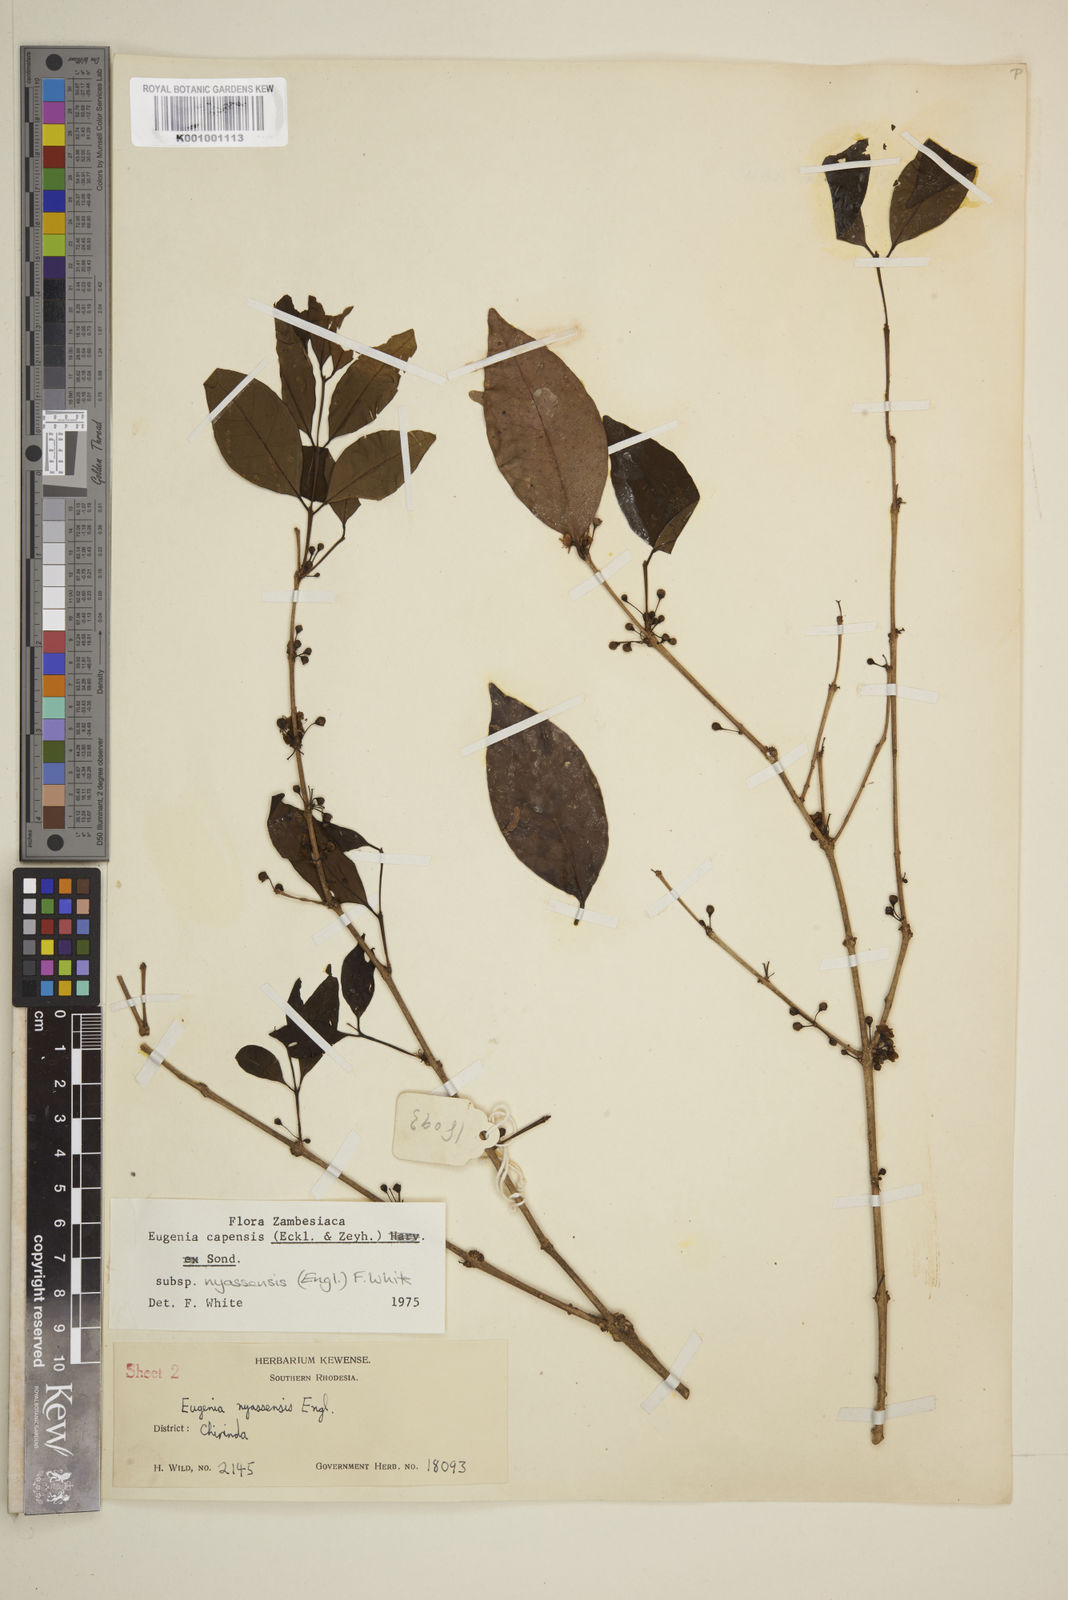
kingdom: Plantae
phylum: Tracheophyta
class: Magnoliopsida
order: Myrtales
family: Myrtaceae
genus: Eugenia
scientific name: Eugenia capensis
